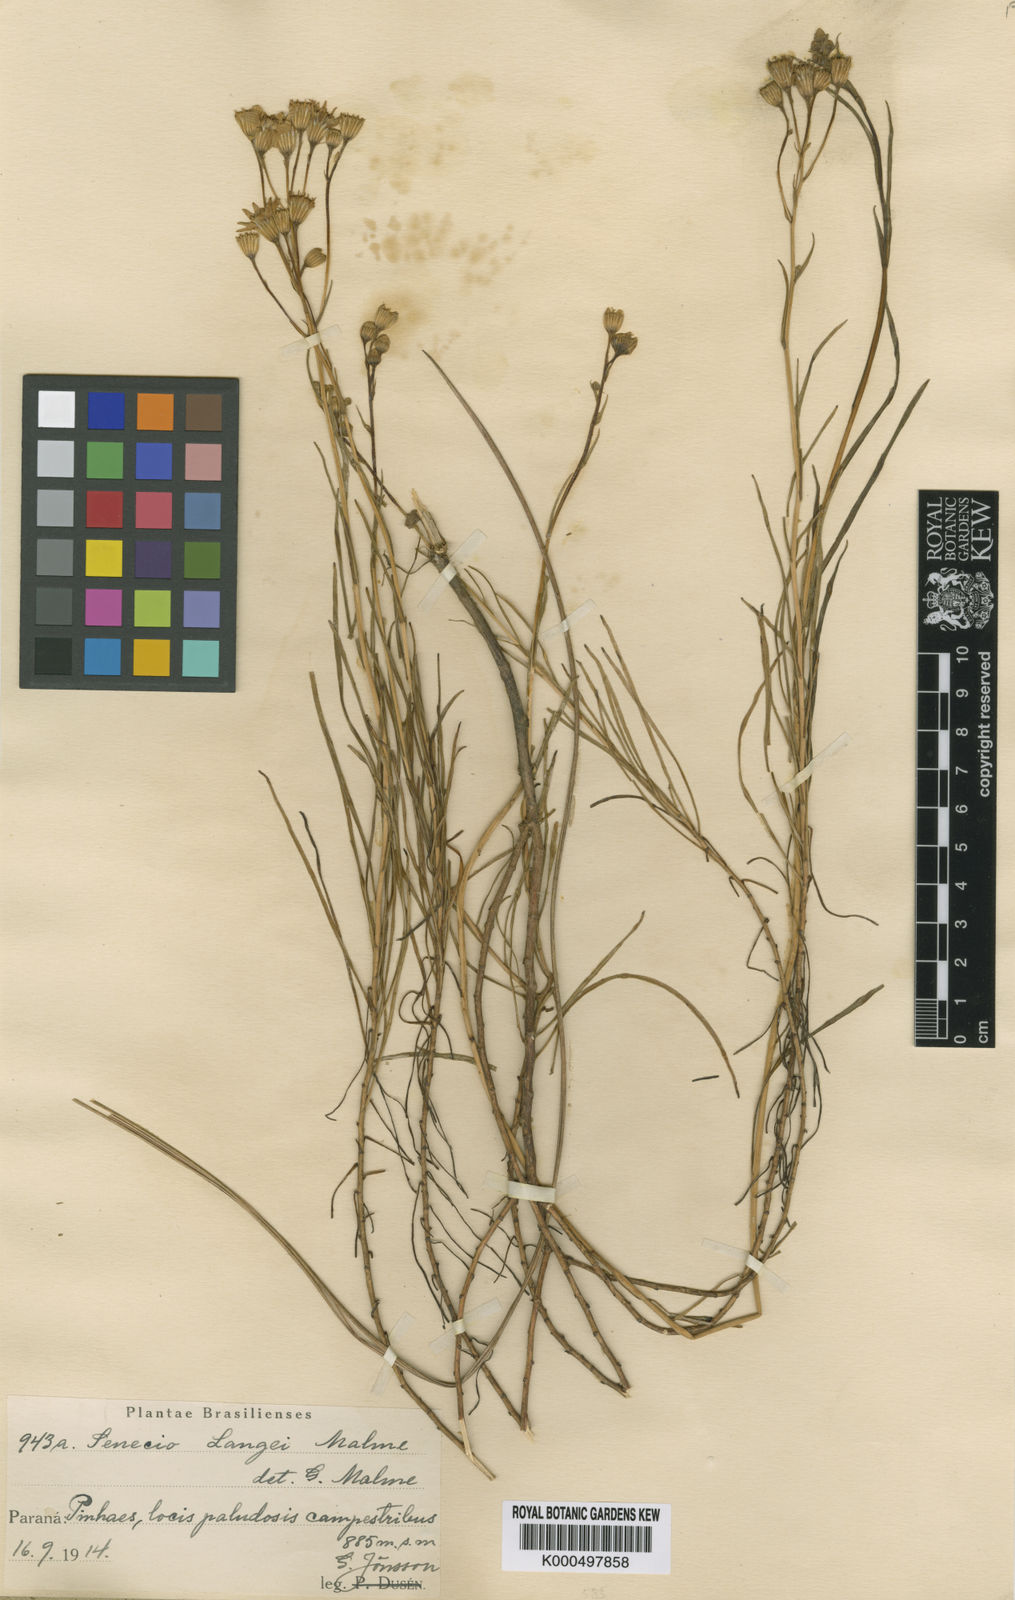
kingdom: Plantae
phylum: Tracheophyta
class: Magnoliopsida
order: Asterales
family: Asteraceae
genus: Senecio
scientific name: Senecio langei
